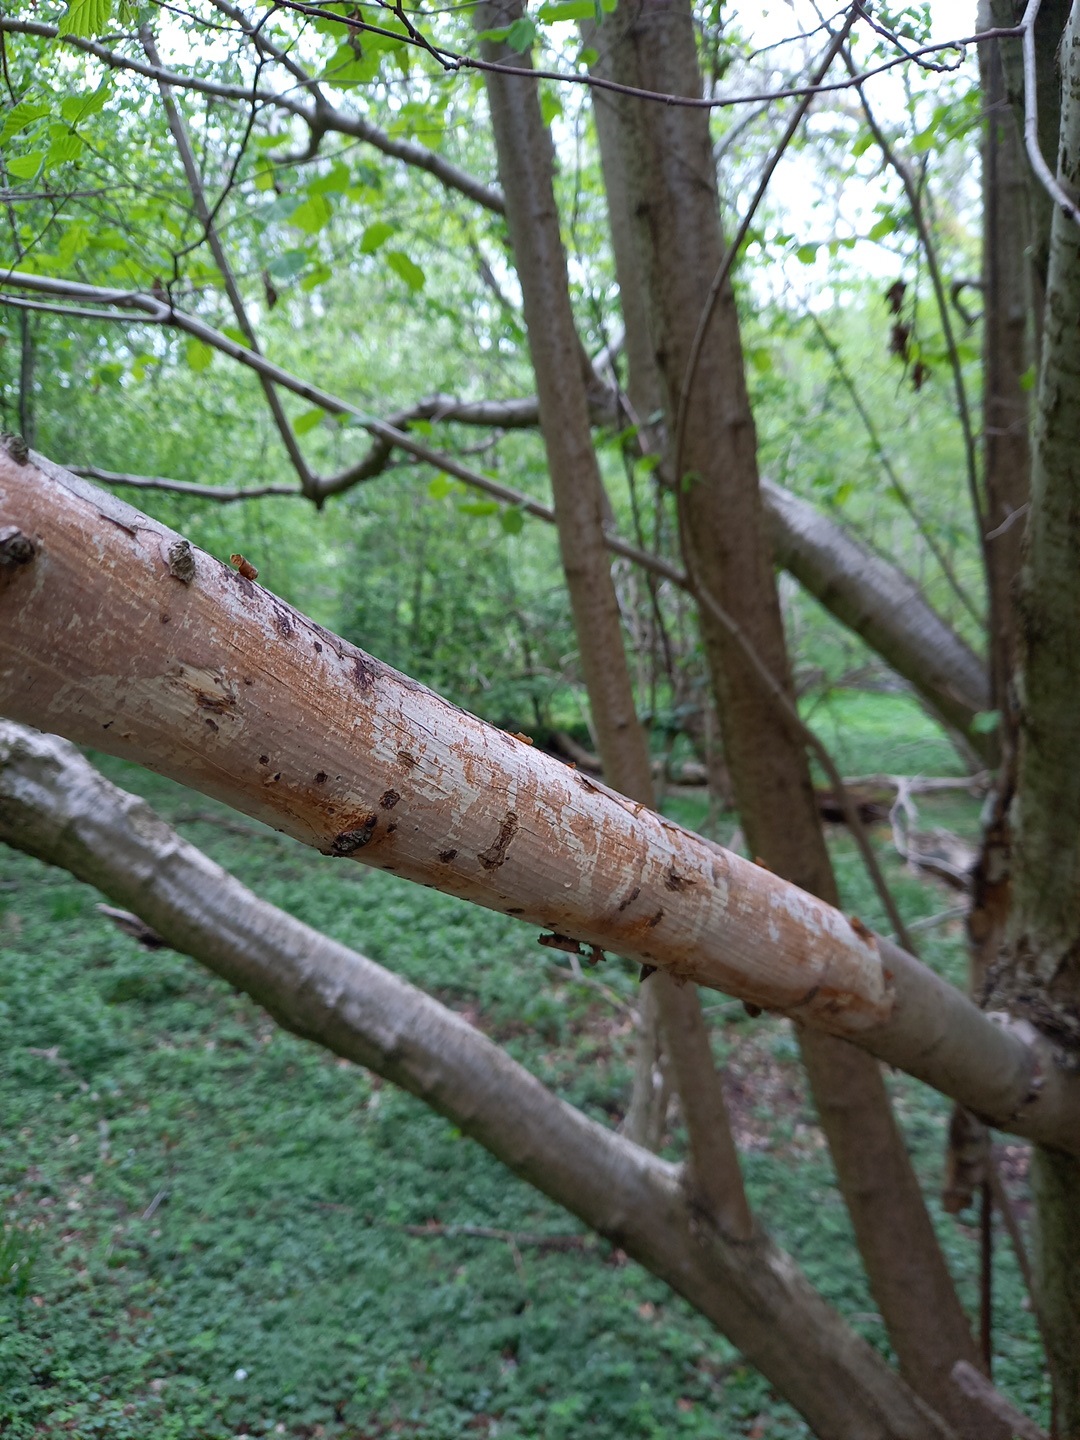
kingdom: Fungi
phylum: Basidiomycota
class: Agaricomycetes
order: Corticiales
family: Vuilleminiaceae
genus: Vuilleminia
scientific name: Vuilleminia coryli
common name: hassel-barksprænger
